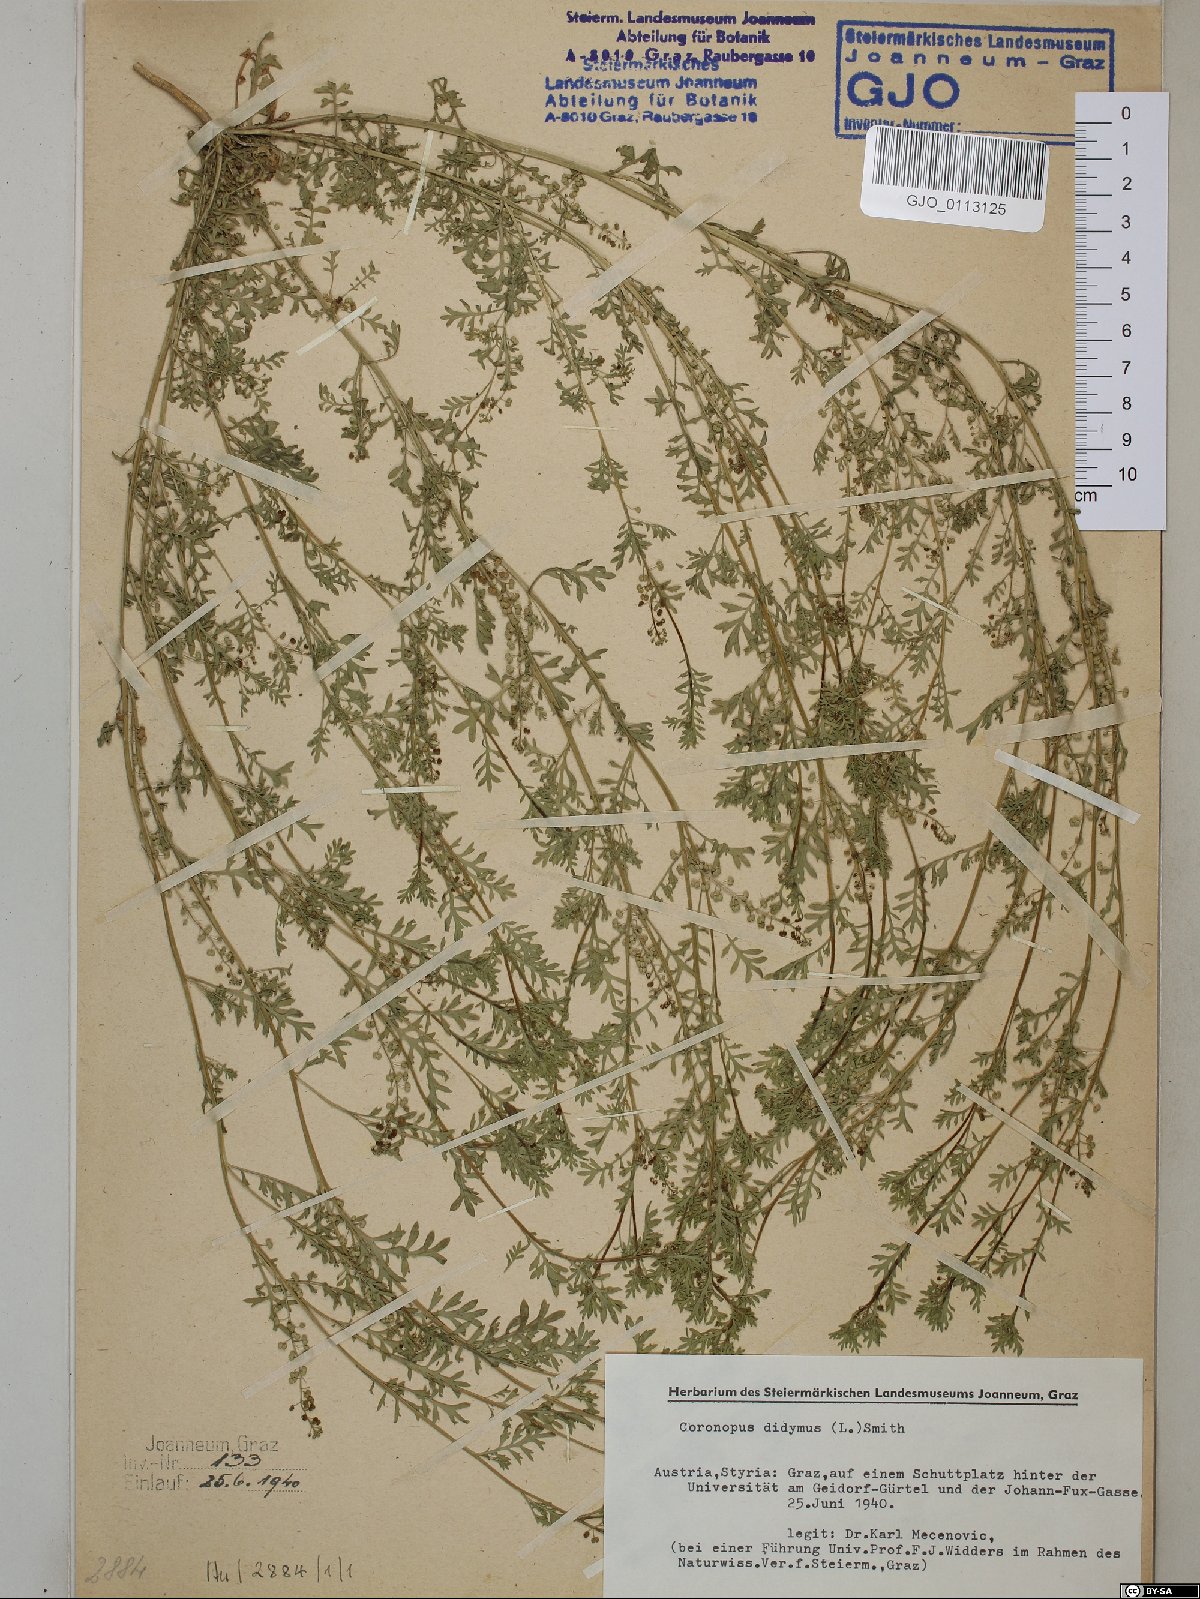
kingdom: Plantae
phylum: Tracheophyta
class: Magnoliopsida
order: Brassicales
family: Brassicaceae
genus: Lepidium
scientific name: Lepidium didymum
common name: Lesser swinecress
